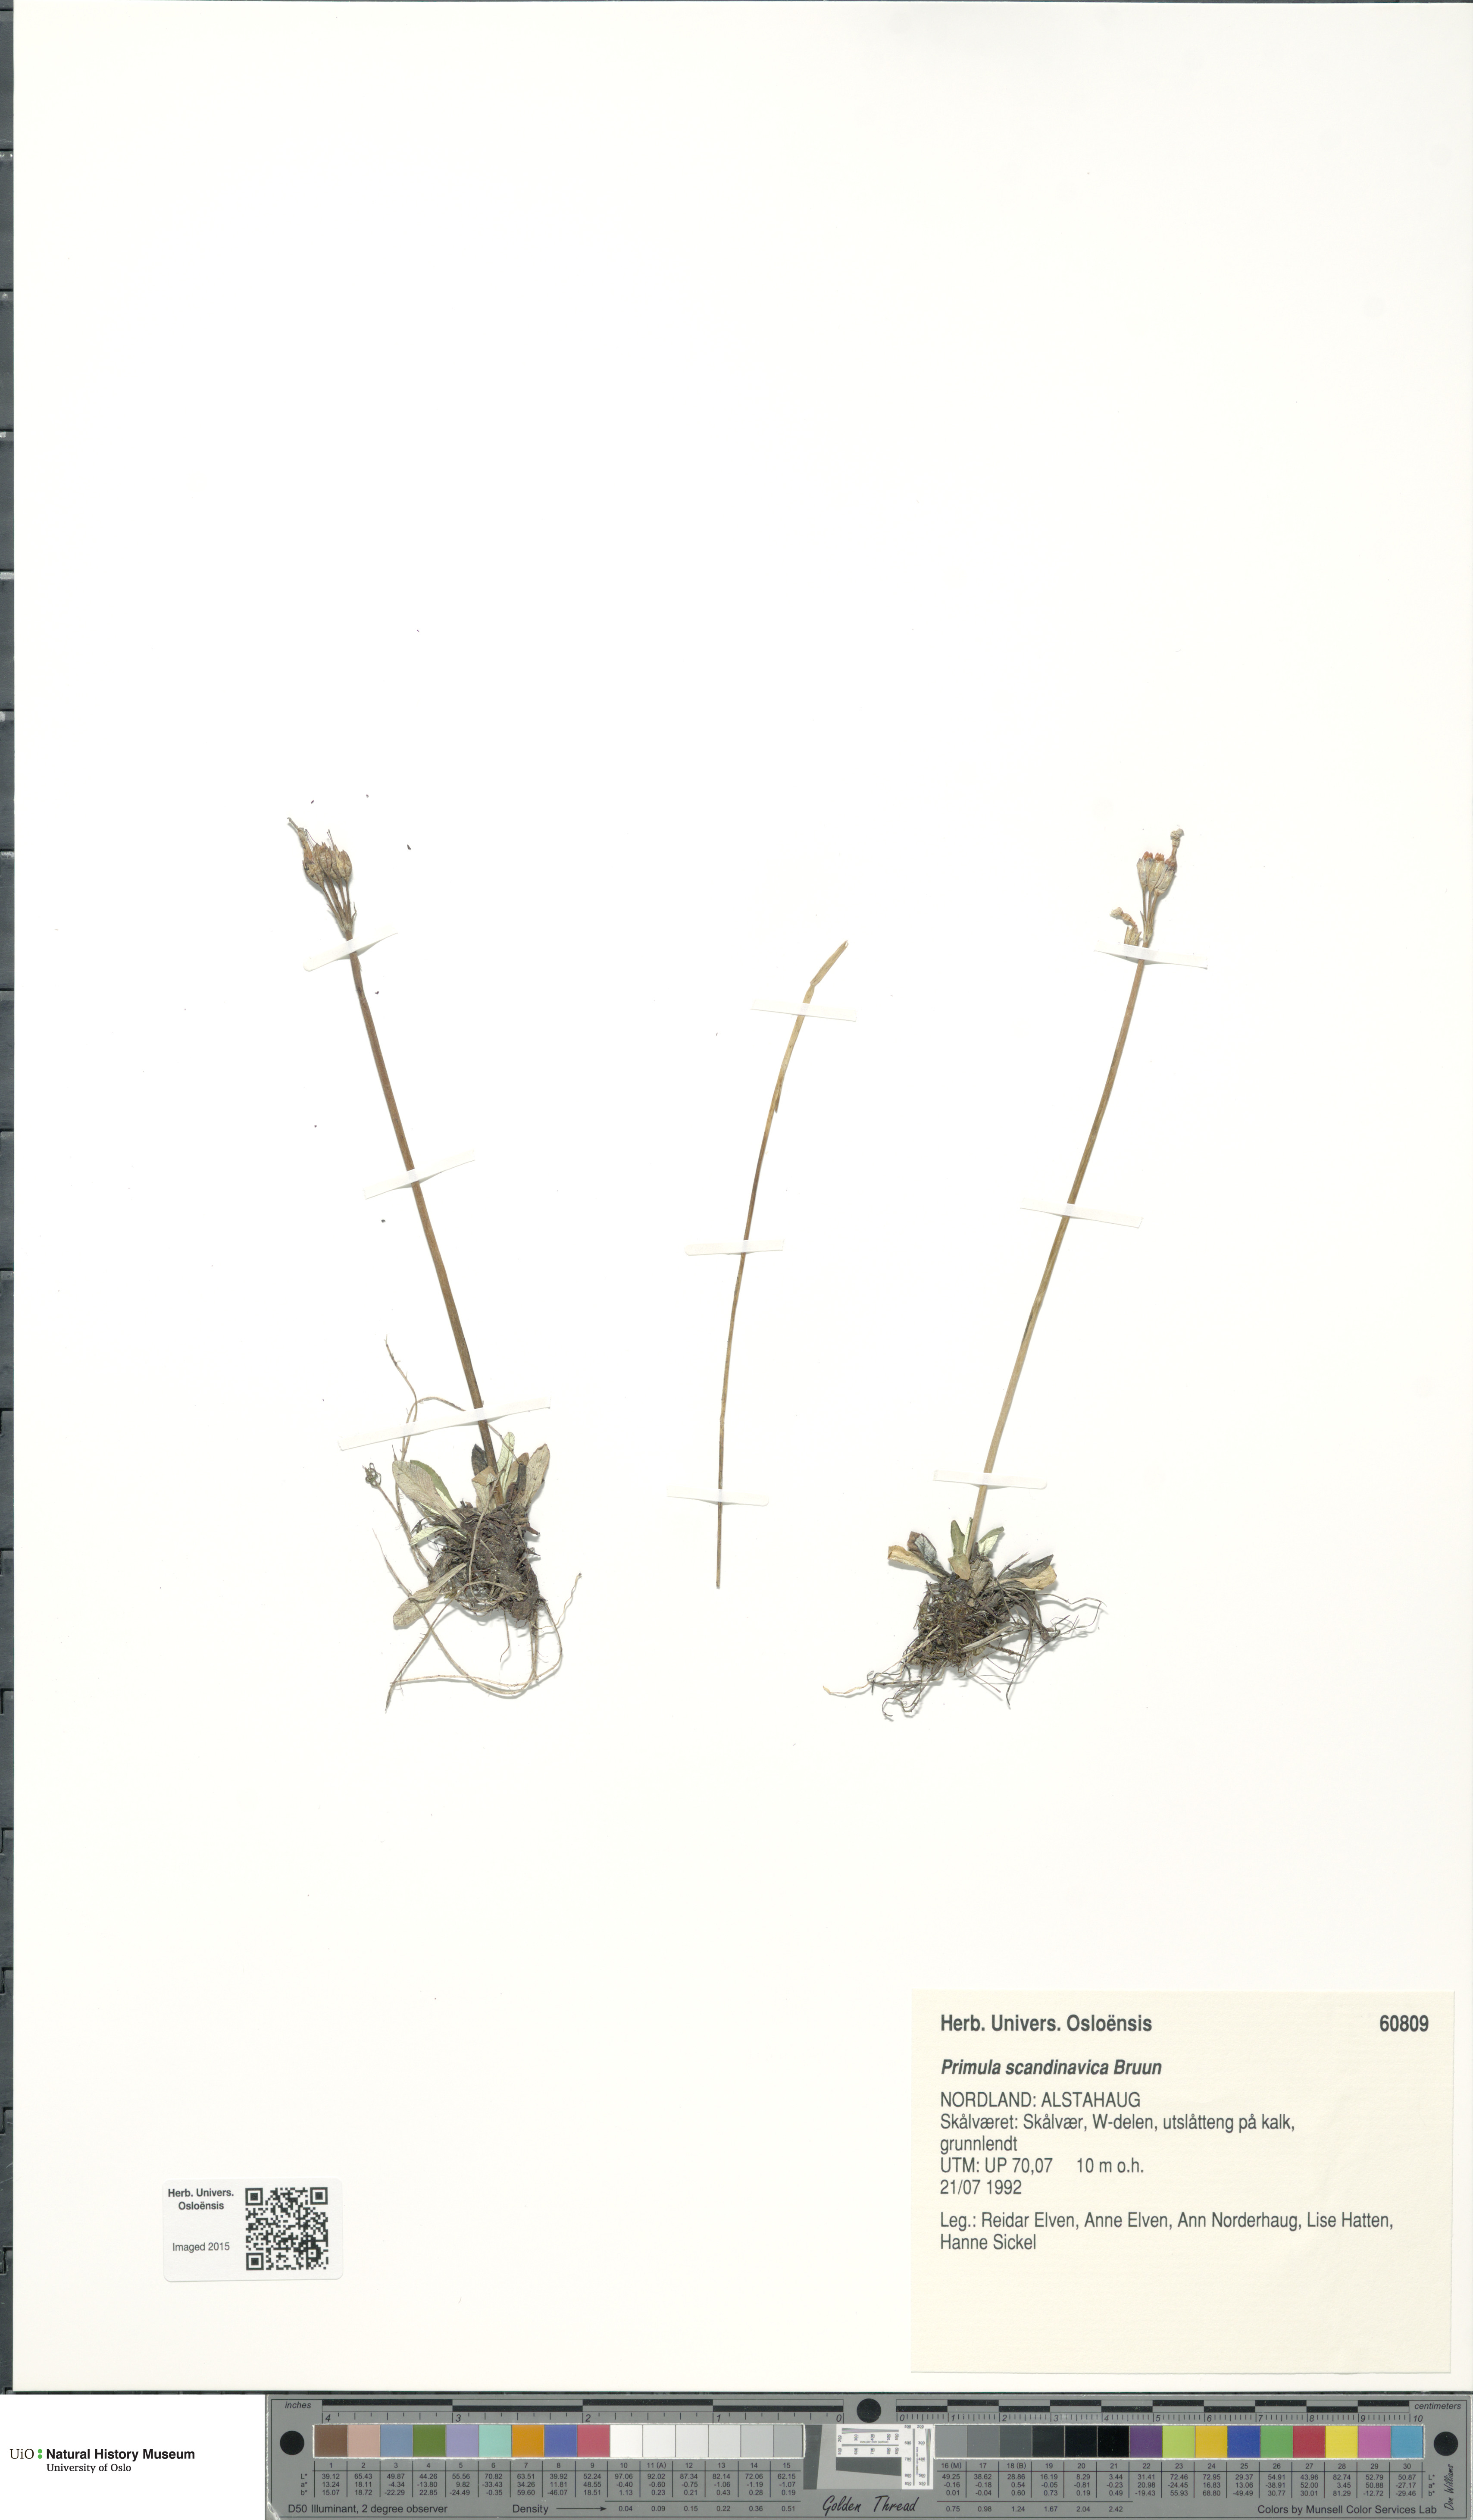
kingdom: Plantae
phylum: Tracheophyta
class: Magnoliopsida
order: Ericales
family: Primulaceae
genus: Primula
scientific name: Primula scandinavica
